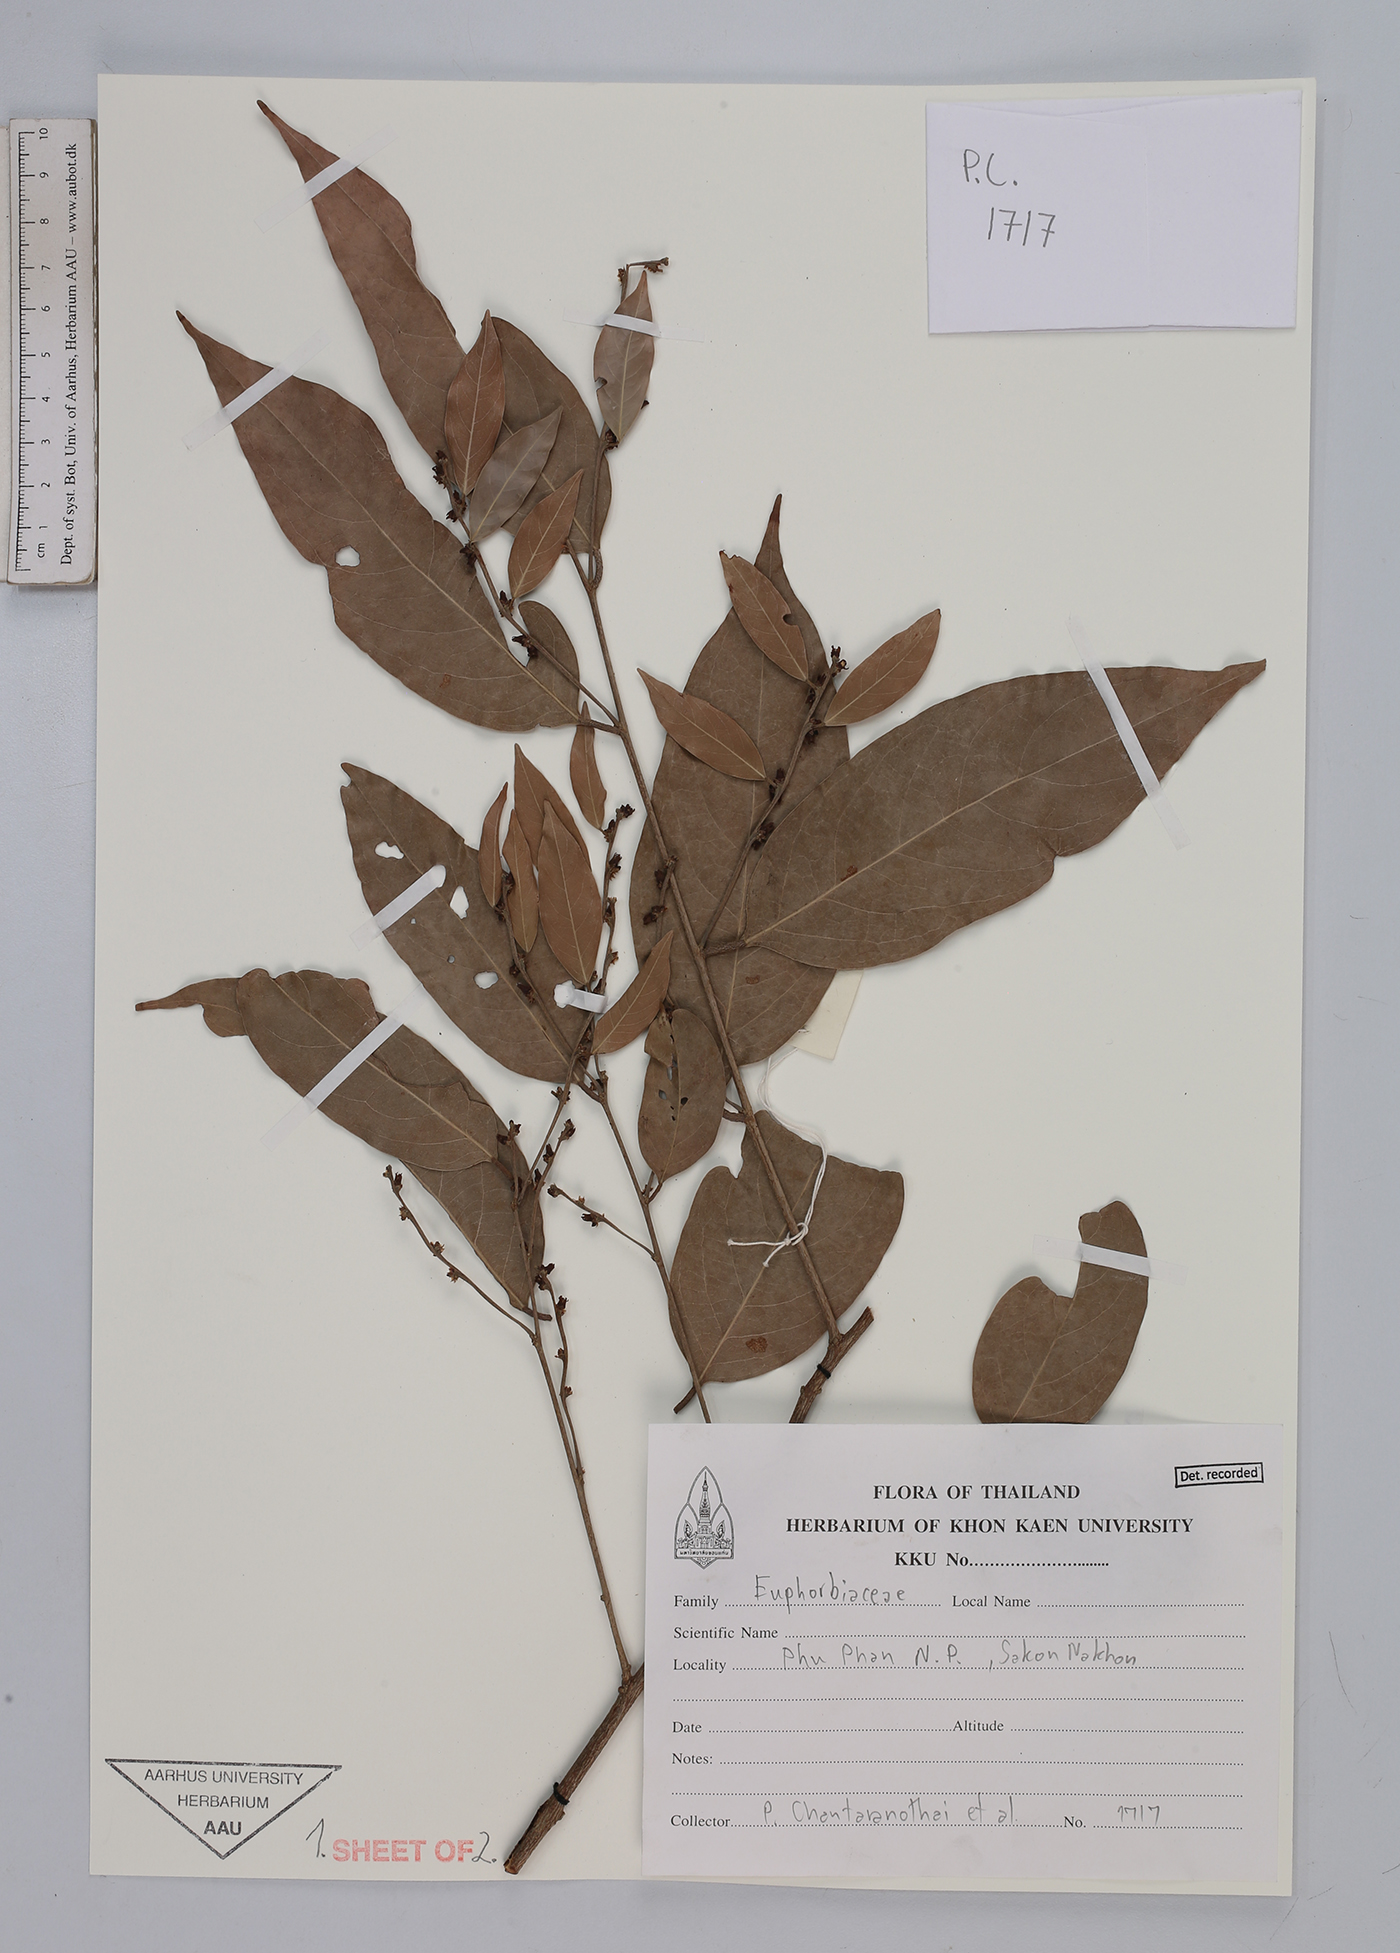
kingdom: Plantae
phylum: Tracheophyta
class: Magnoliopsida
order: Malpighiales
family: Euphorbiaceae
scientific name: Euphorbiaceae
